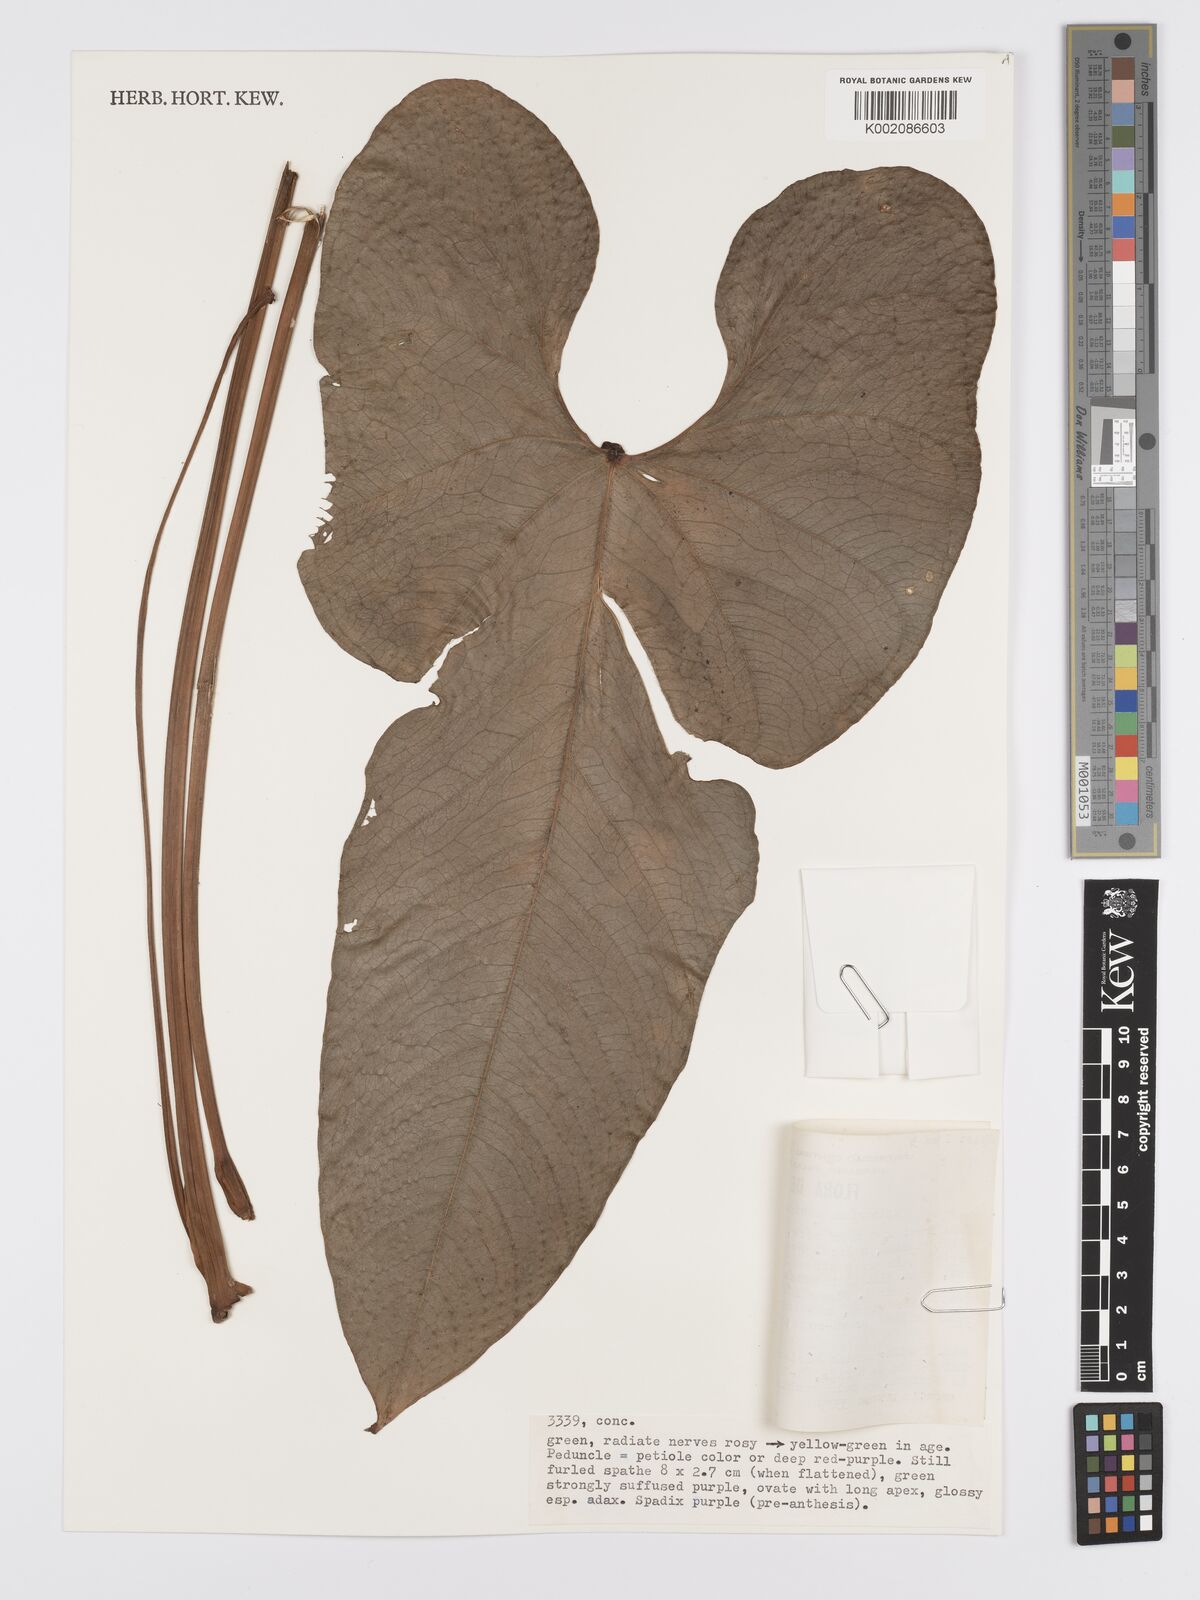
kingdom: Plantae
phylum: Tracheophyta
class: Liliopsida
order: Alismatales
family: Araceae
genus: Anthurium
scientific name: Anthurium nubicola
